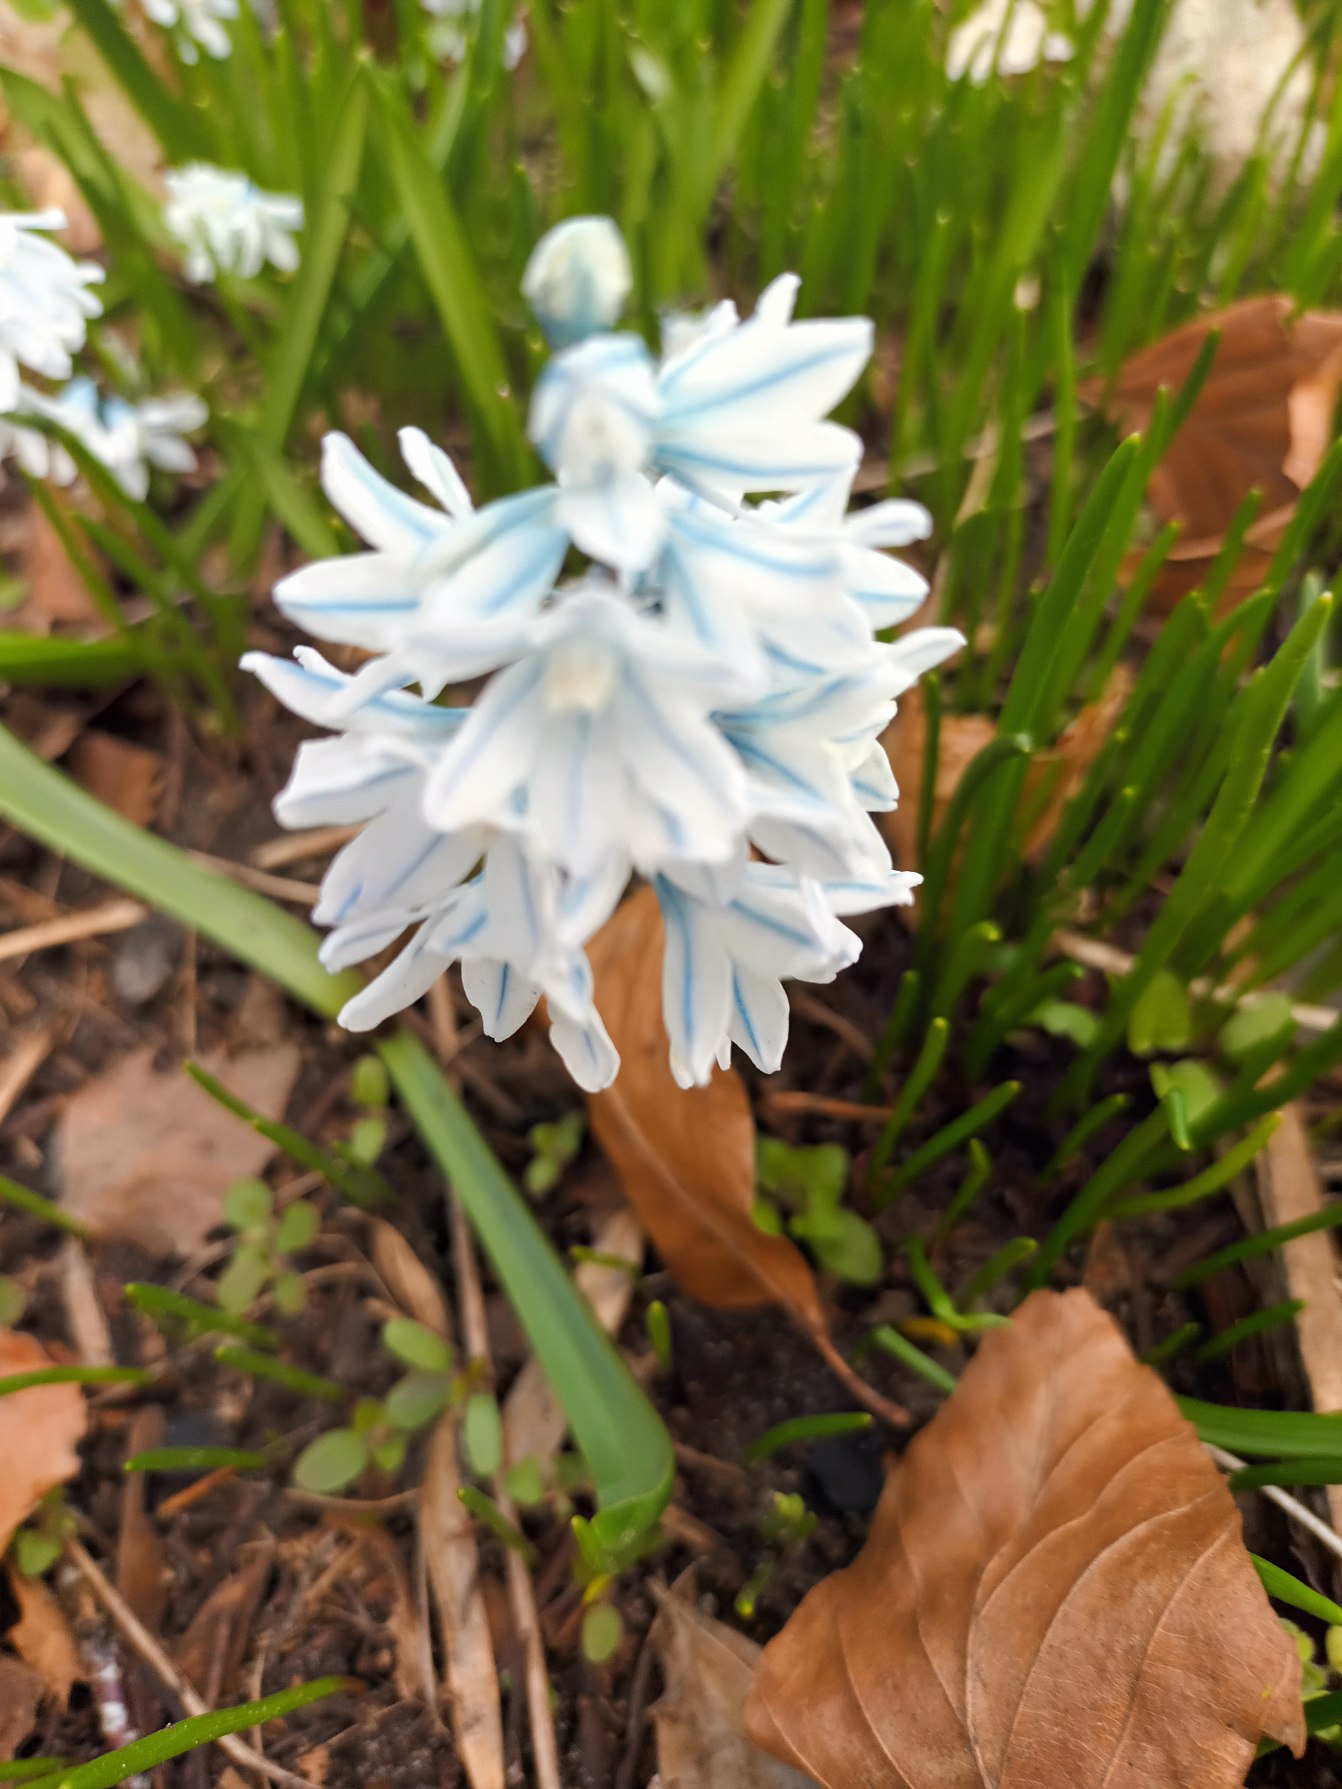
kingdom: Plantae
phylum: Tracheophyta
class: Liliopsida
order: Asparagales
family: Asparagaceae
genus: Puschkinia
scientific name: Puschkinia scilloides
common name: Porcelænshyacint
